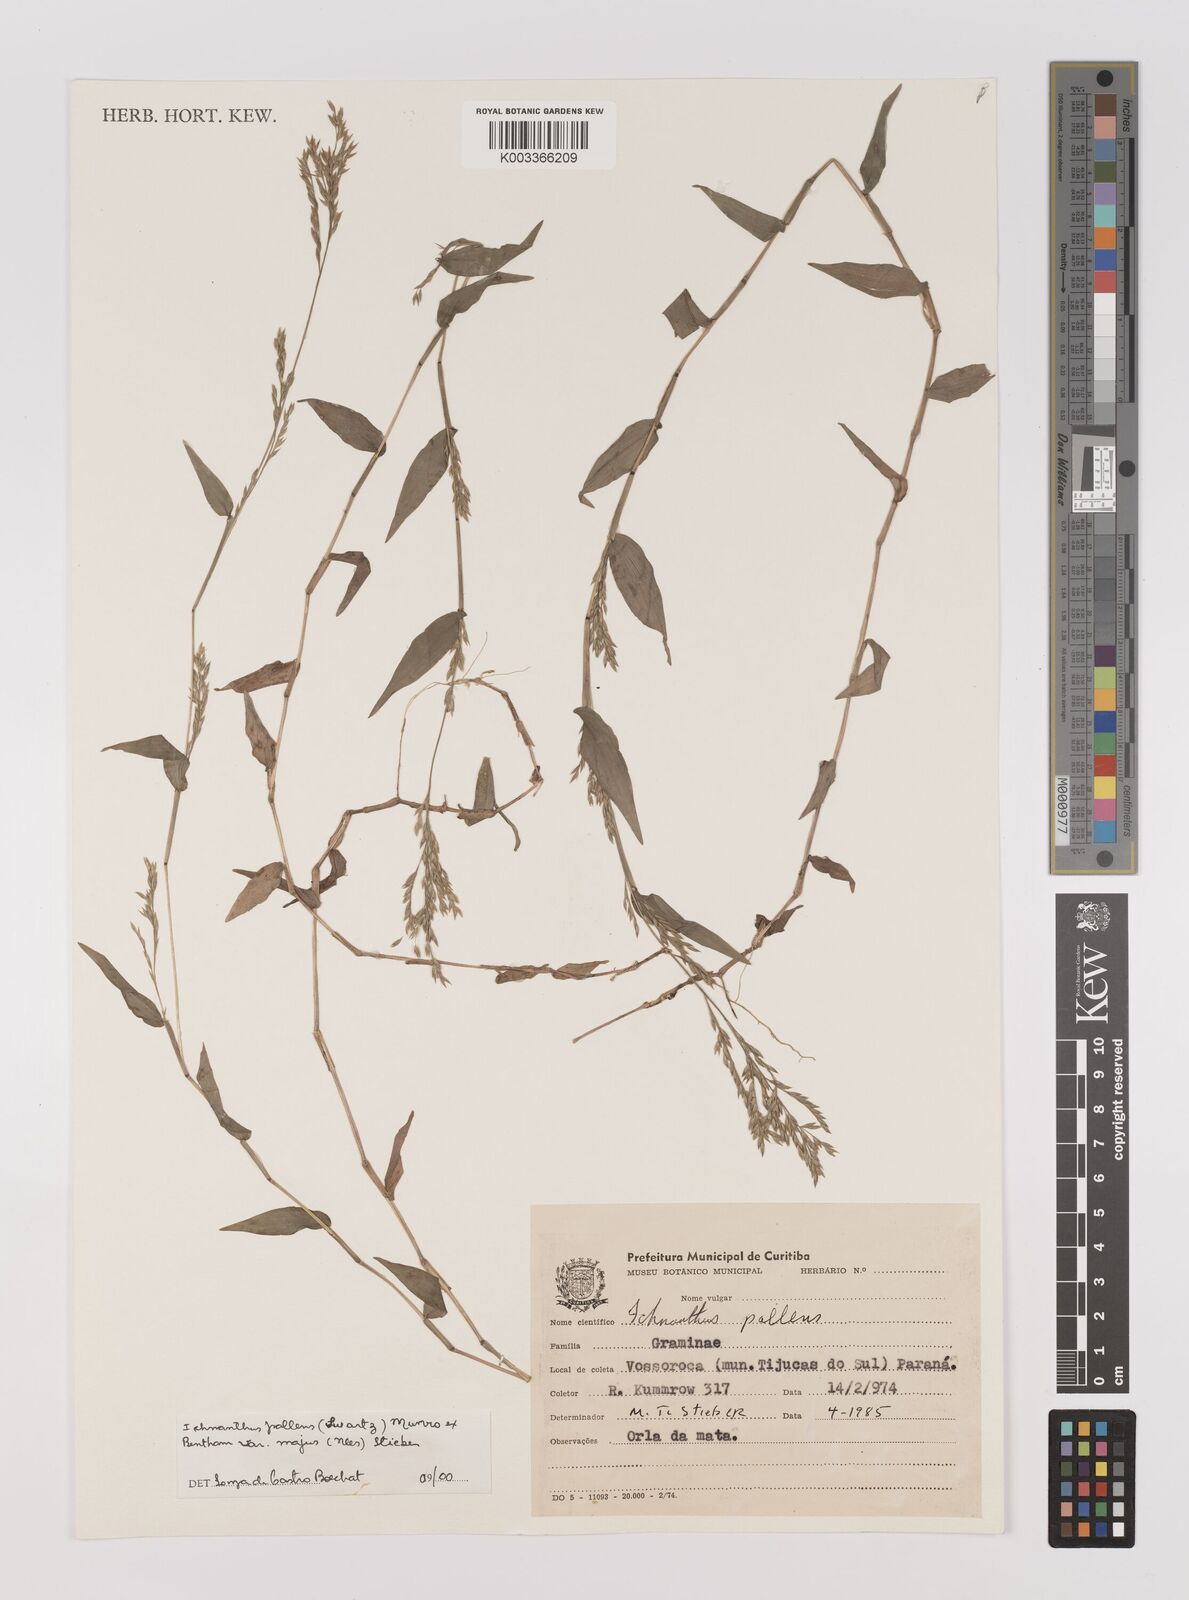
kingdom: Plantae
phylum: Tracheophyta
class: Liliopsida
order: Poales
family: Poaceae
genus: Ichnanthus
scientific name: Ichnanthus pallens
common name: Water grass
